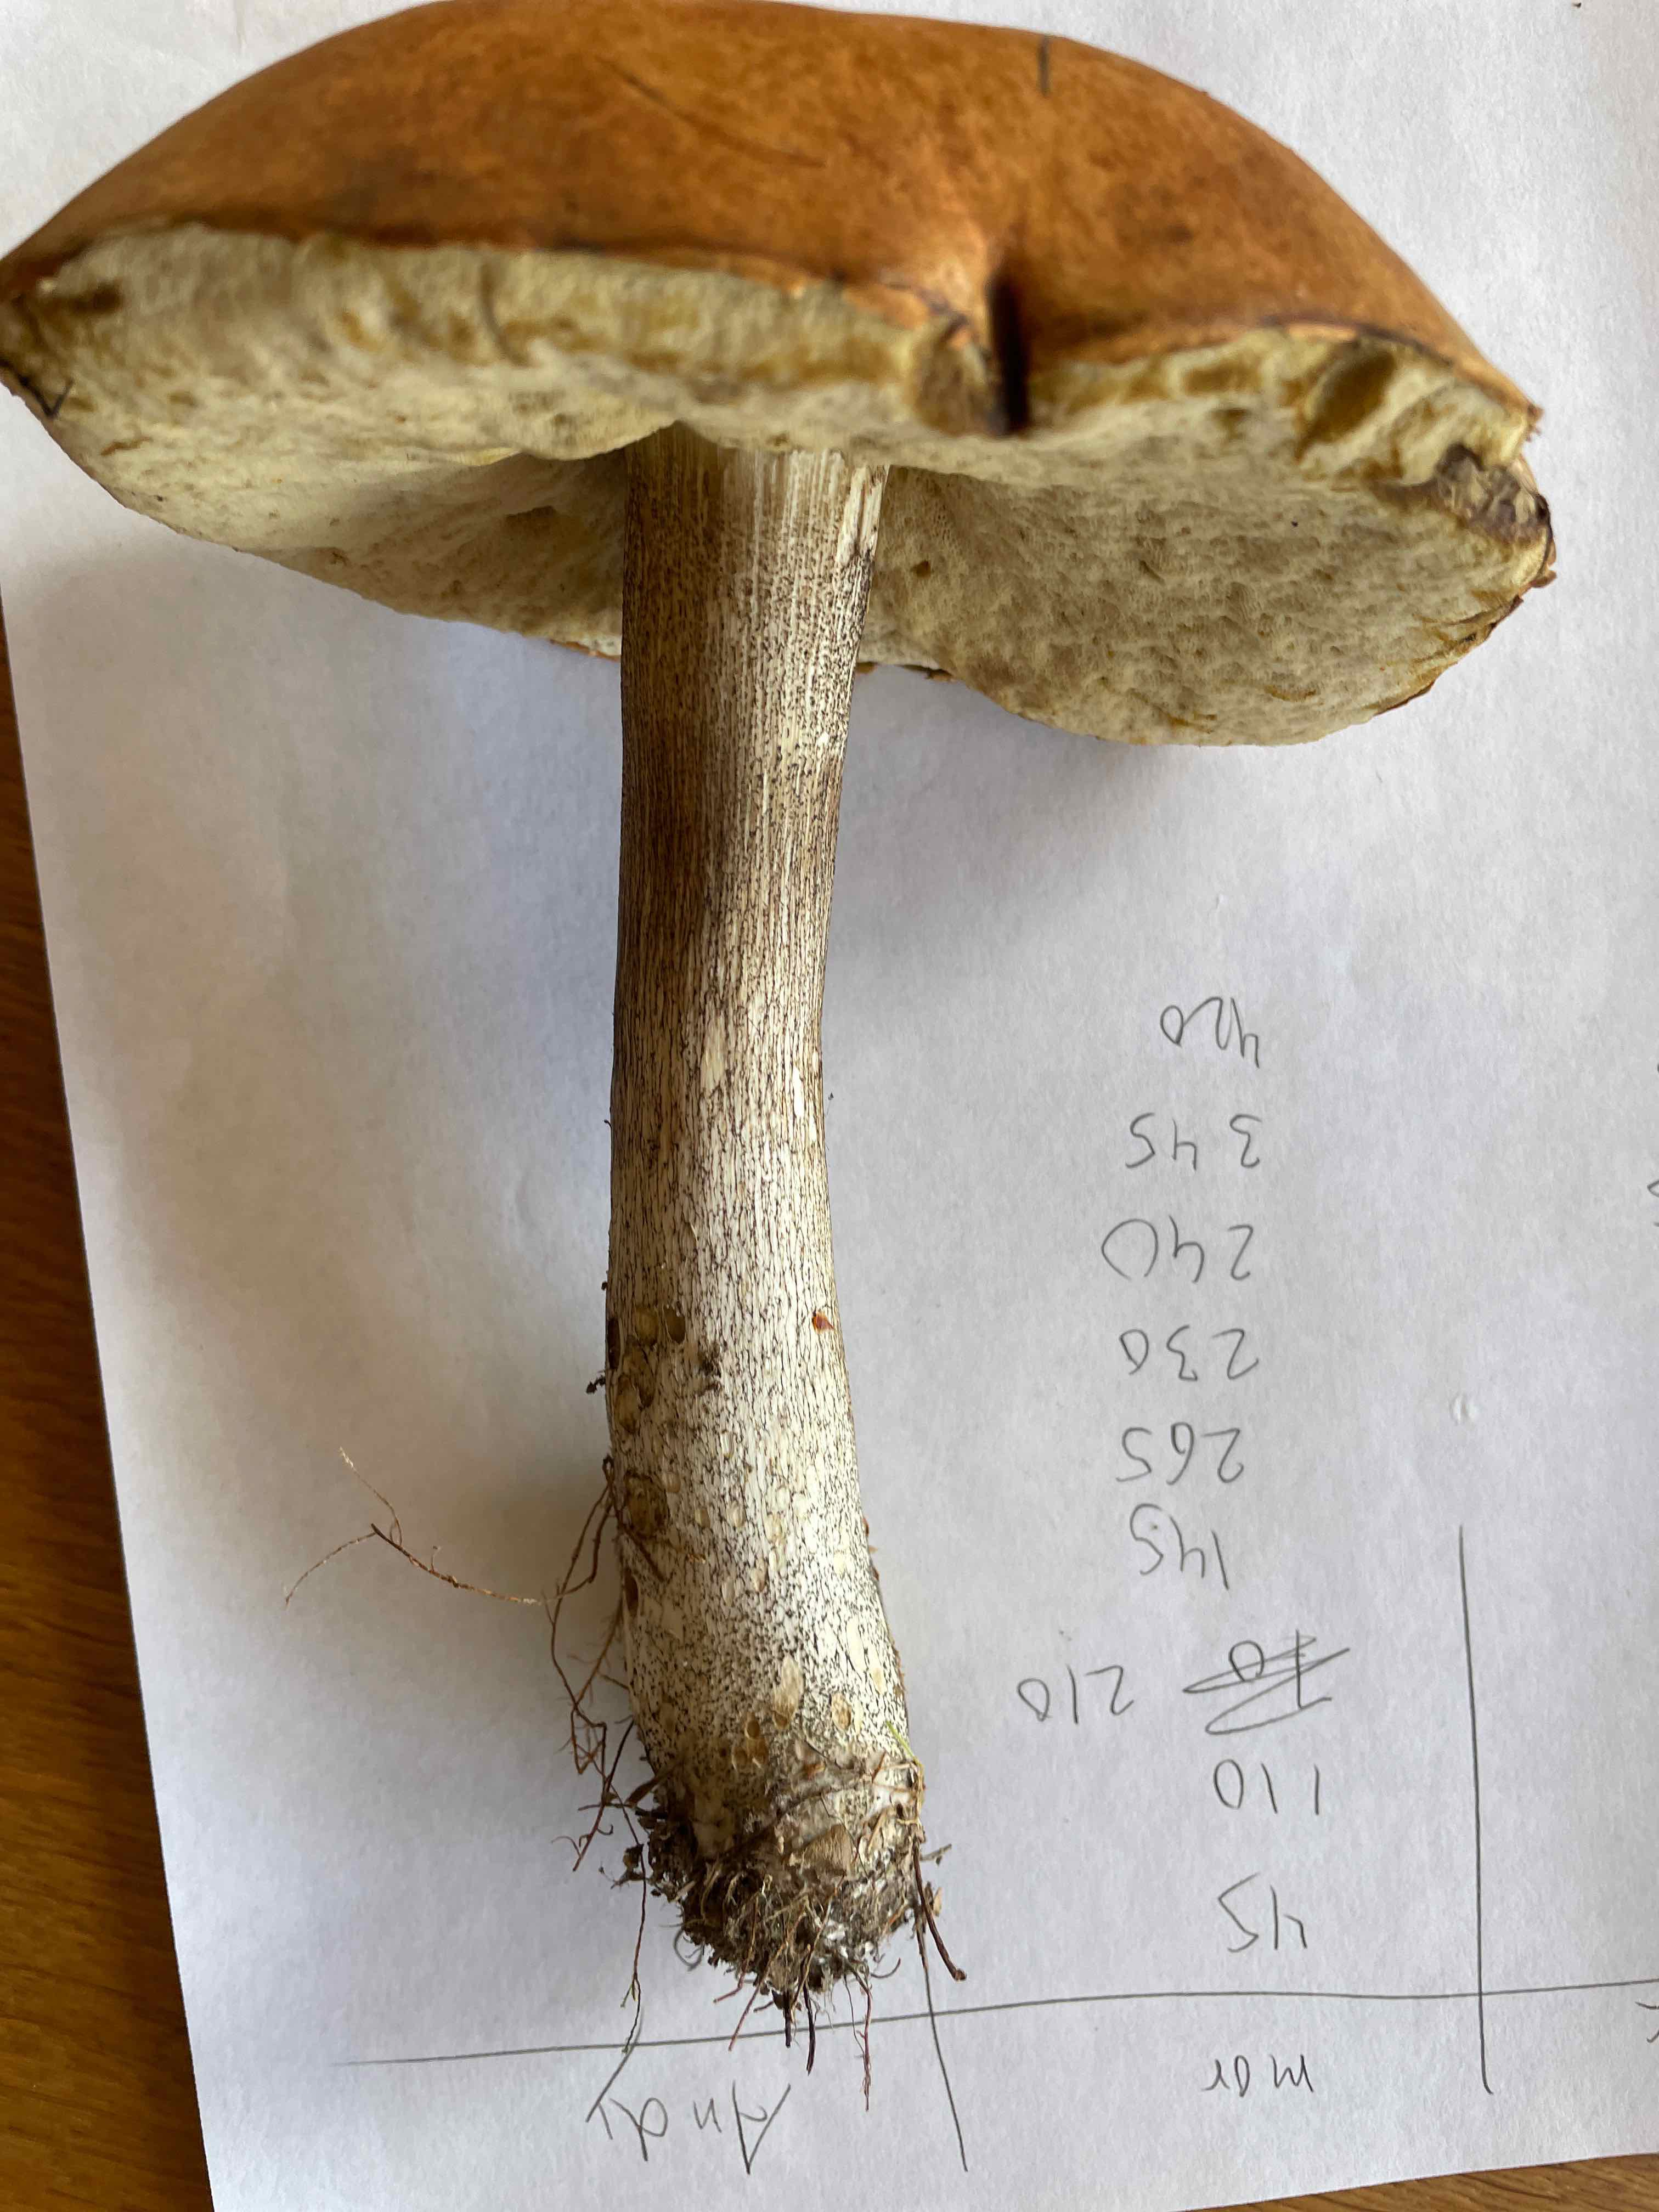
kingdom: Fungi
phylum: Basidiomycota
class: Agaricomycetes
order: Boletales
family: Boletaceae
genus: Leccinum
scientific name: Leccinum
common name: skælrørhat
